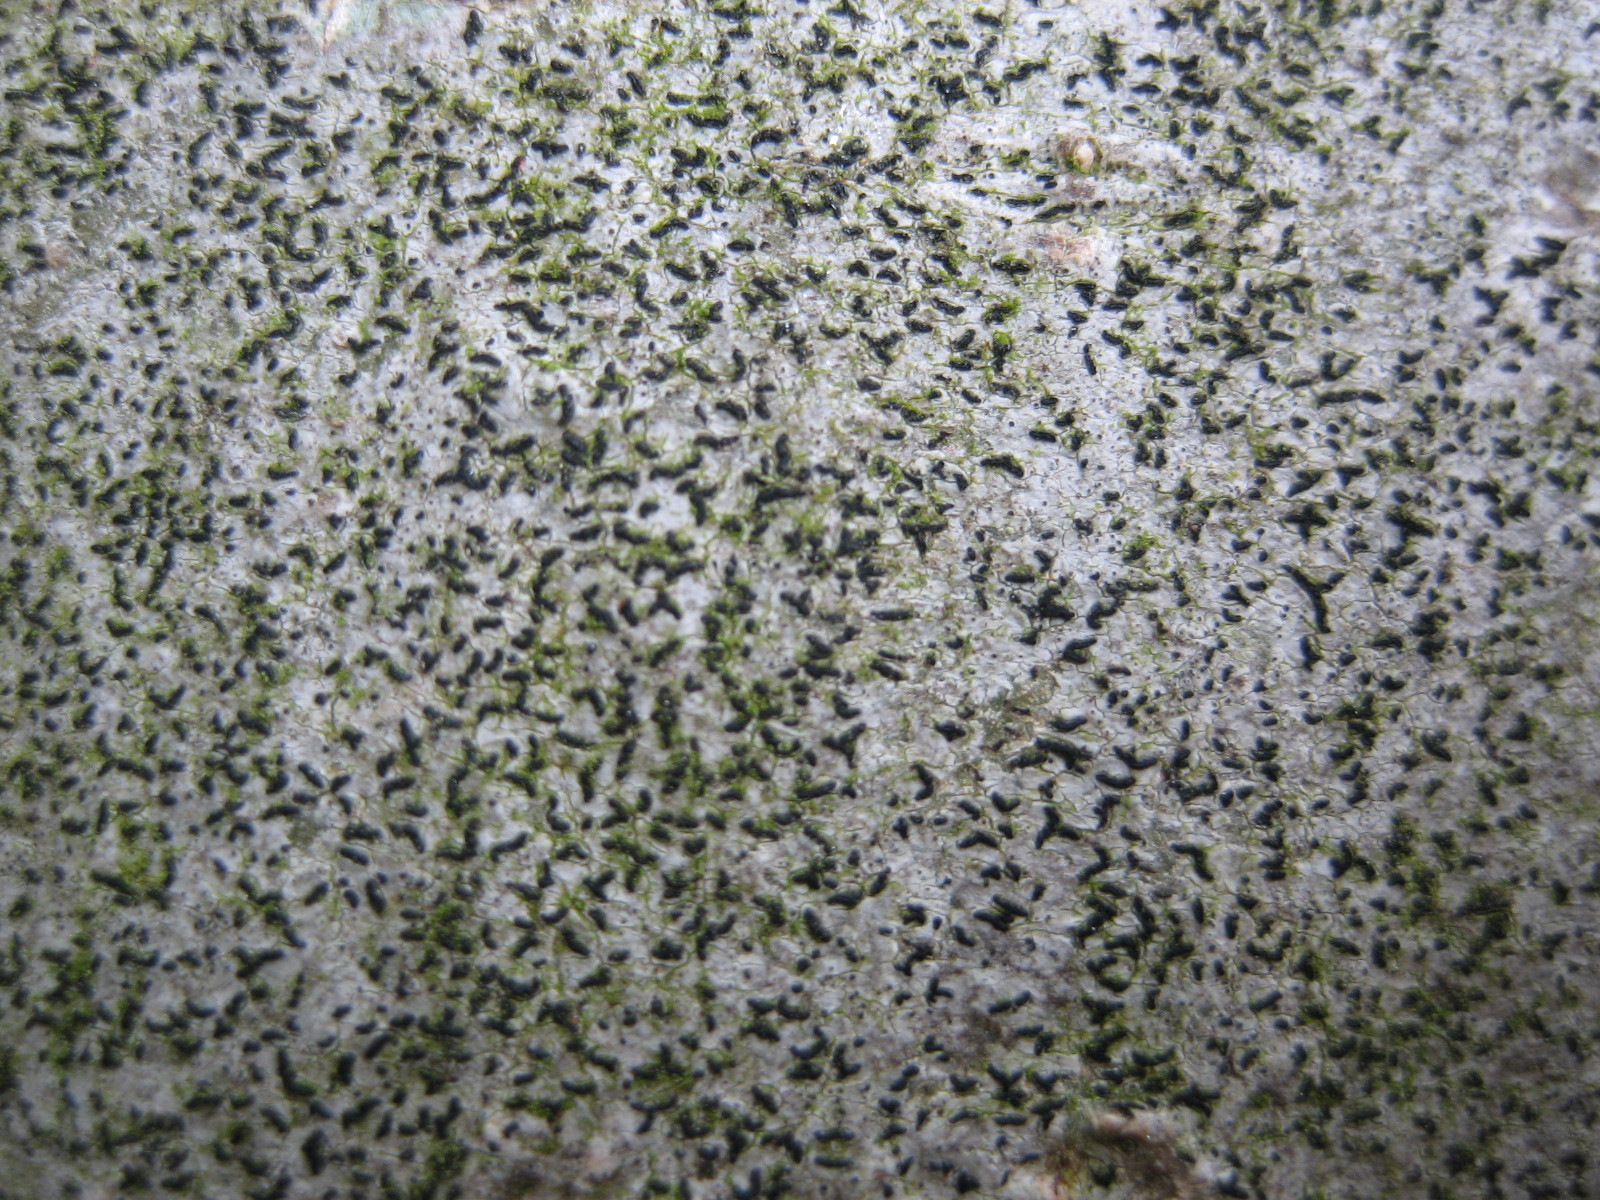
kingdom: Fungi
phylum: Ascomycota
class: Arthoniomycetes
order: Arthoniales
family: Opegraphaceae
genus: Opegrapha
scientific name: Opegrapha niveoatra
